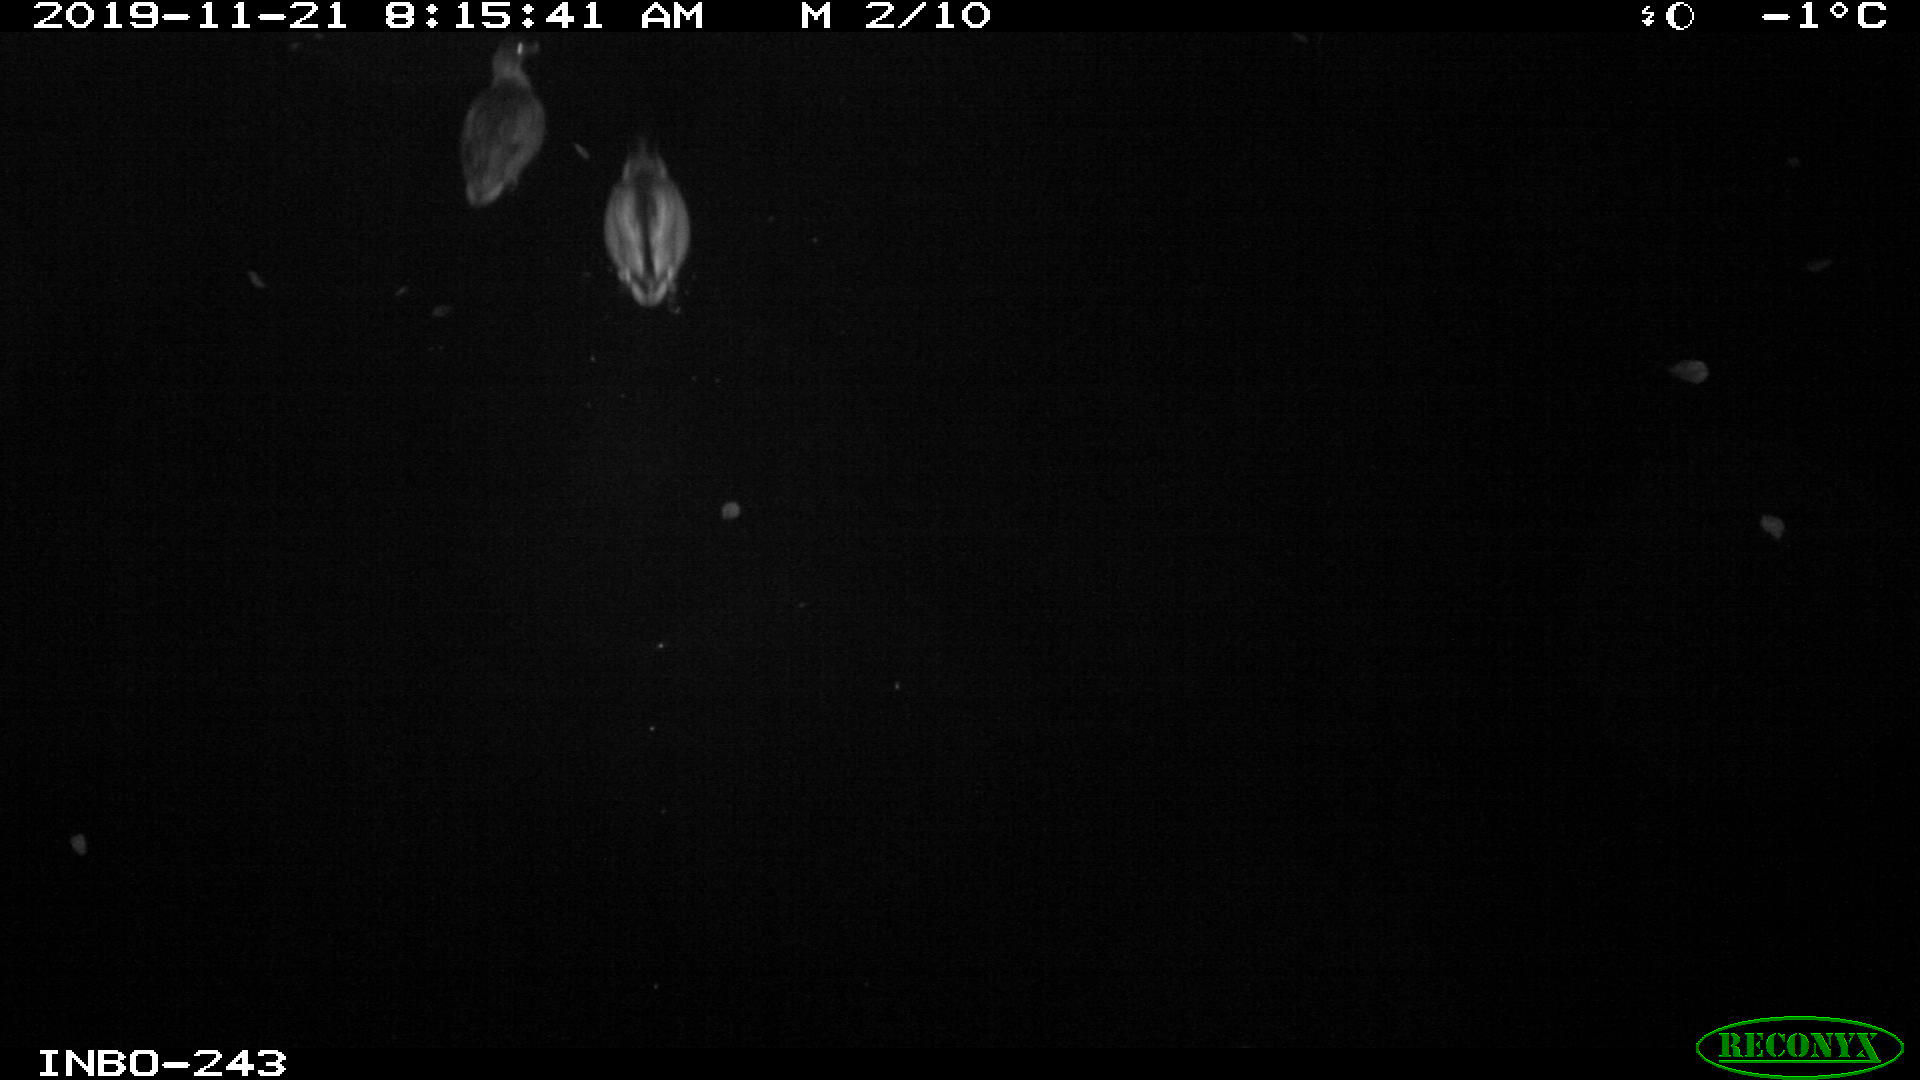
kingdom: Animalia
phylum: Chordata
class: Aves
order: Anseriformes
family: Anatidae
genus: Anas
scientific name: Anas platyrhynchos
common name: Mallard
